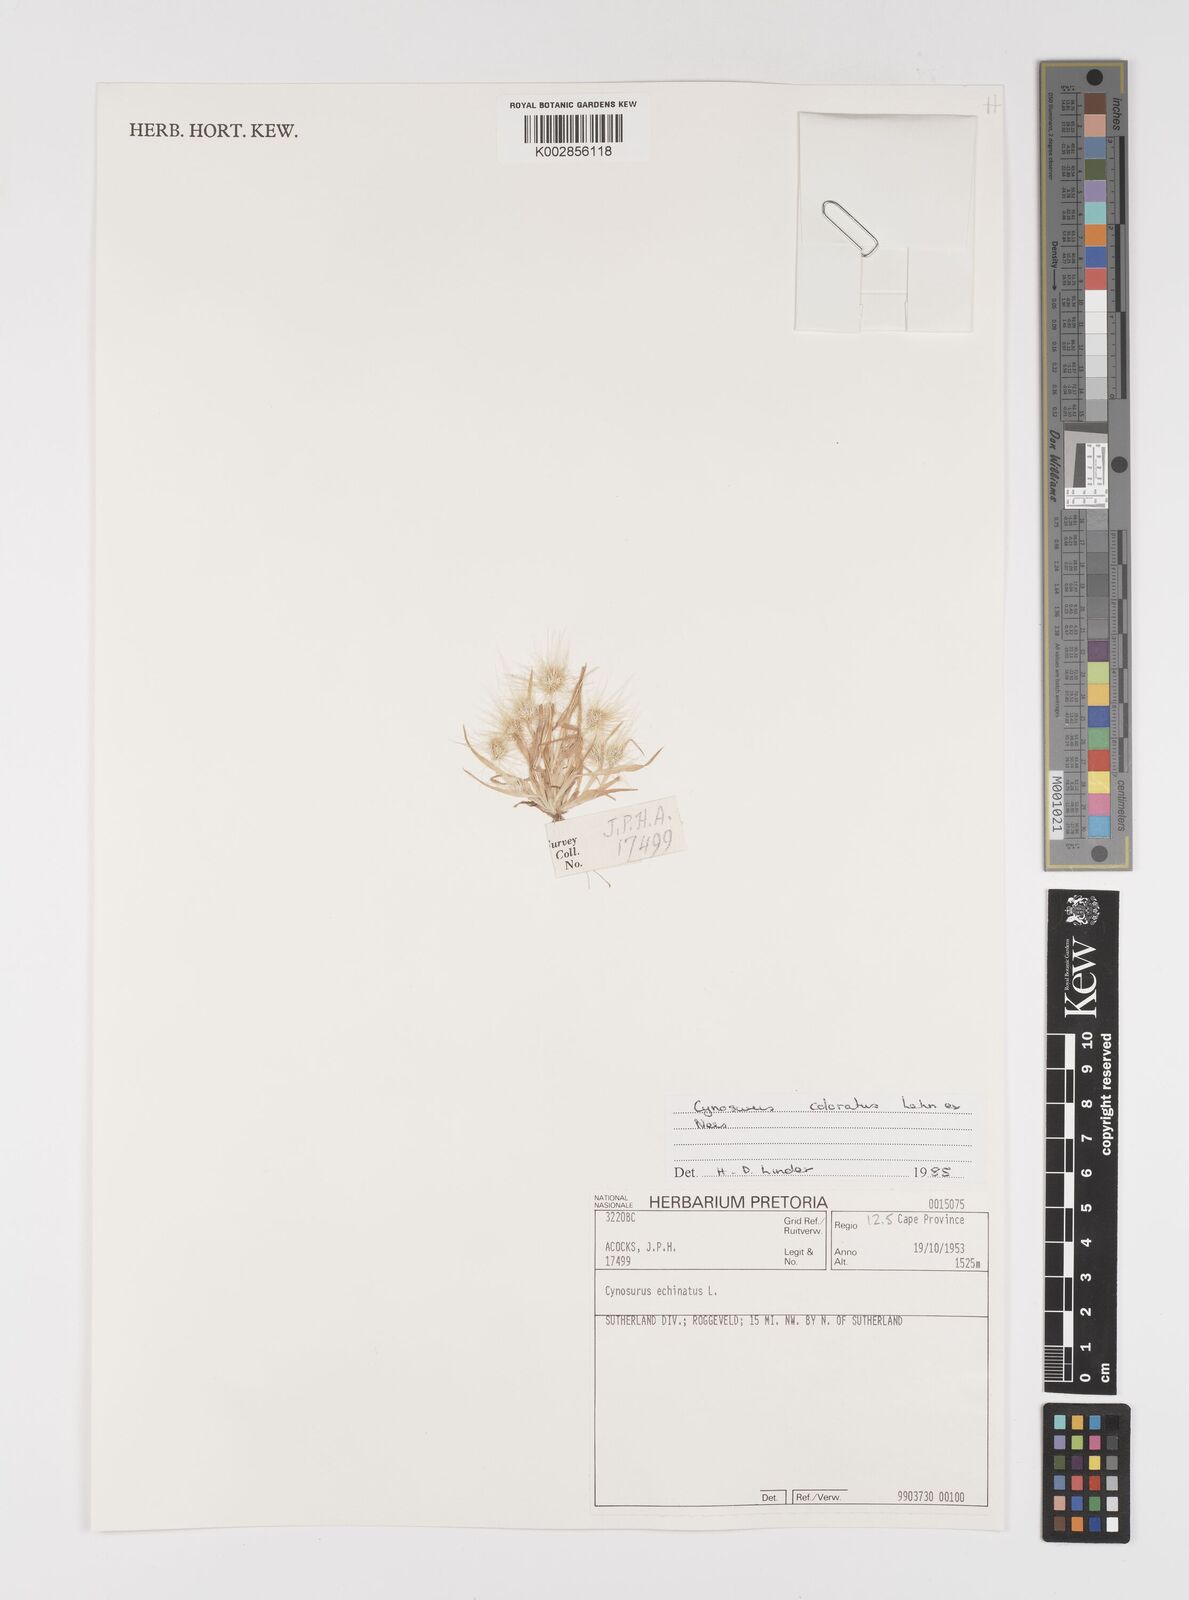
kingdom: Plantae
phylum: Tracheophyta
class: Liliopsida
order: Poales
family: Poaceae
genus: Cynosurus
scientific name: Cynosurus echinatus
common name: Rough dog's-tail
